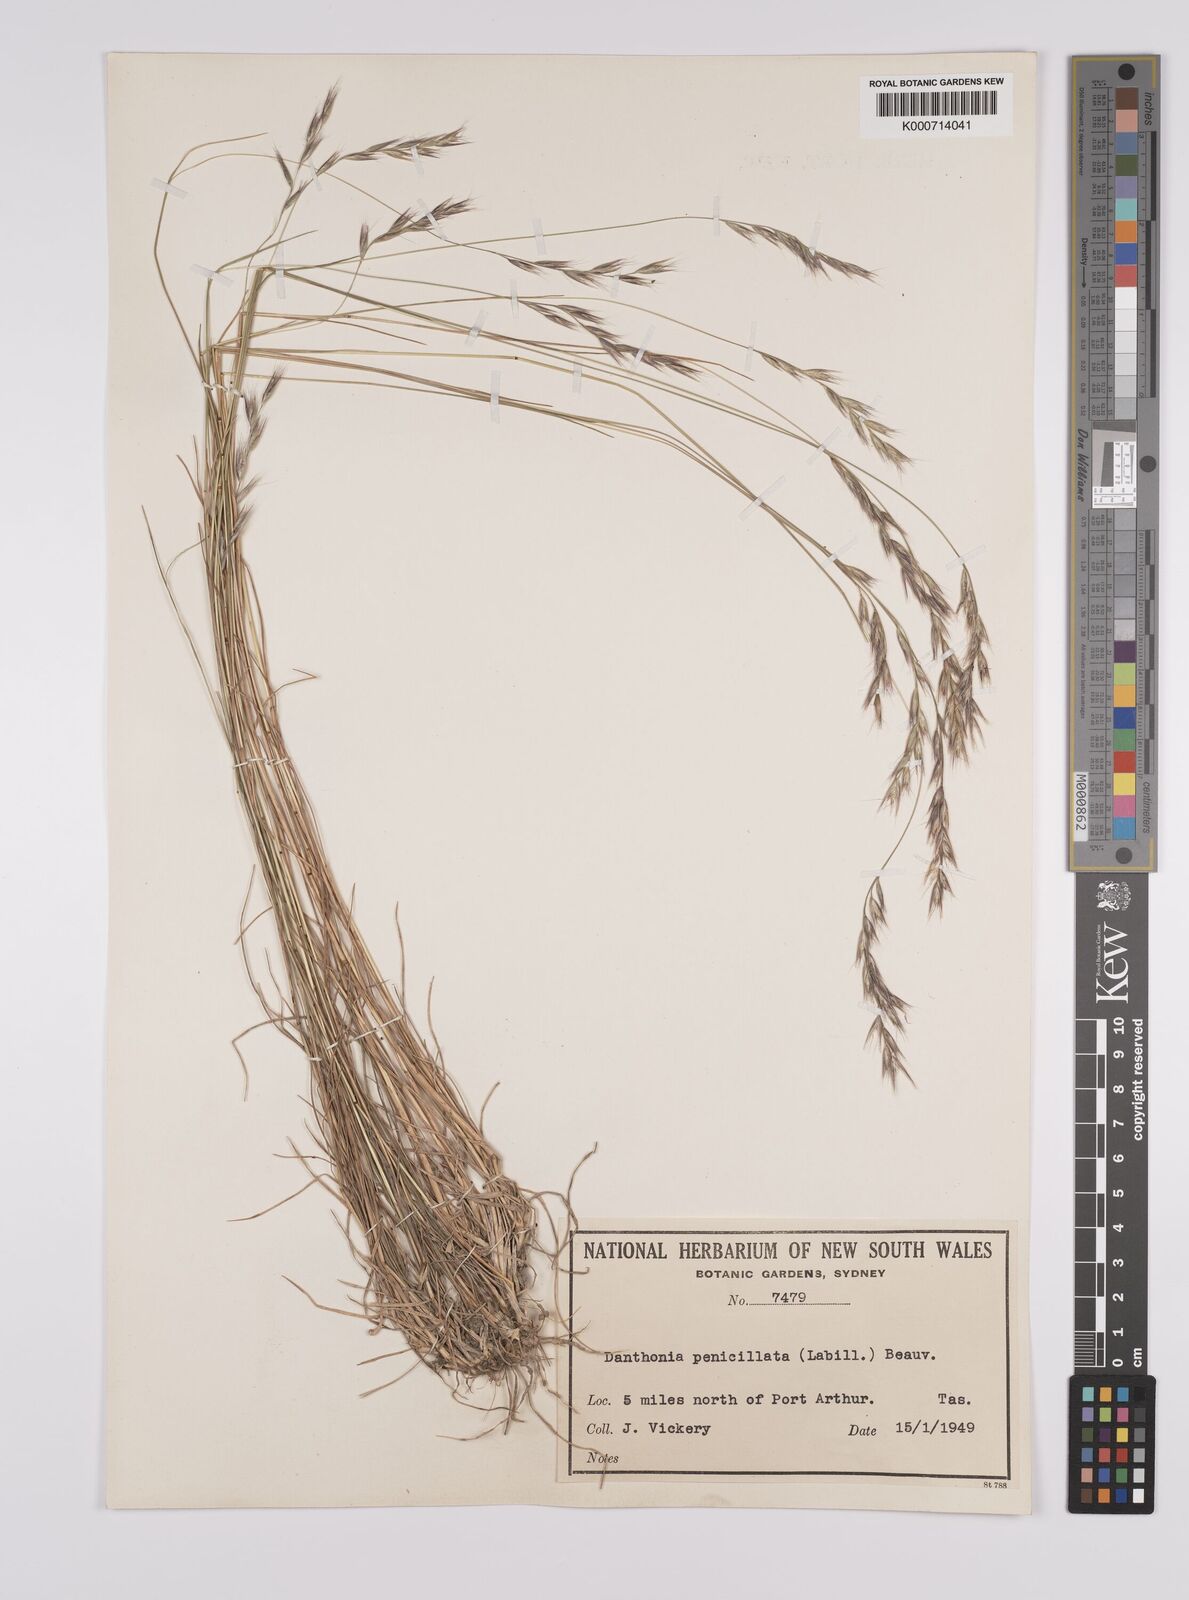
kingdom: Plantae
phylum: Tracheophyta
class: Liliopsida
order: Poales
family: Poaceae
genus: Rytidosperma
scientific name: Rytidosperma penicillatum
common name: Hairy wallaby grass
